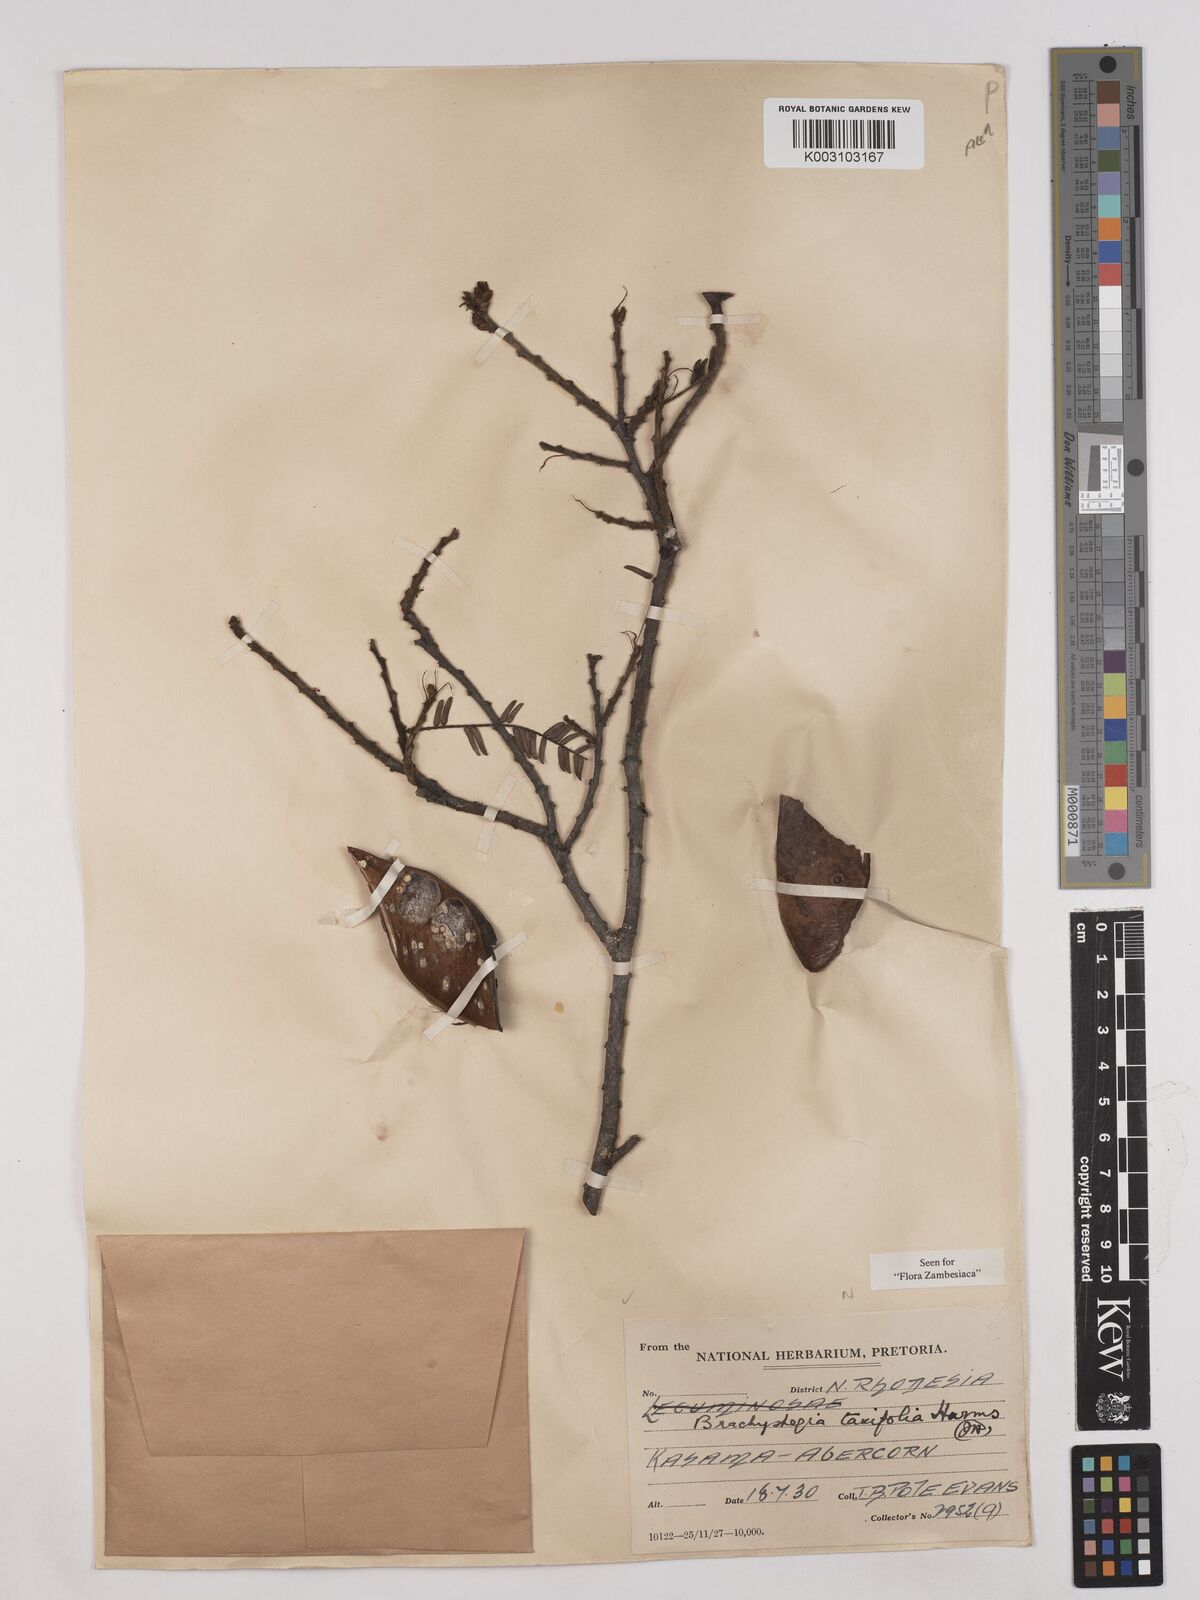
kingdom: Plantae
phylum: Tracheophyta
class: Magnoliopsida
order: Fabales
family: Fabaceae
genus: Brachystegia
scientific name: Brachystegia taxifolia
